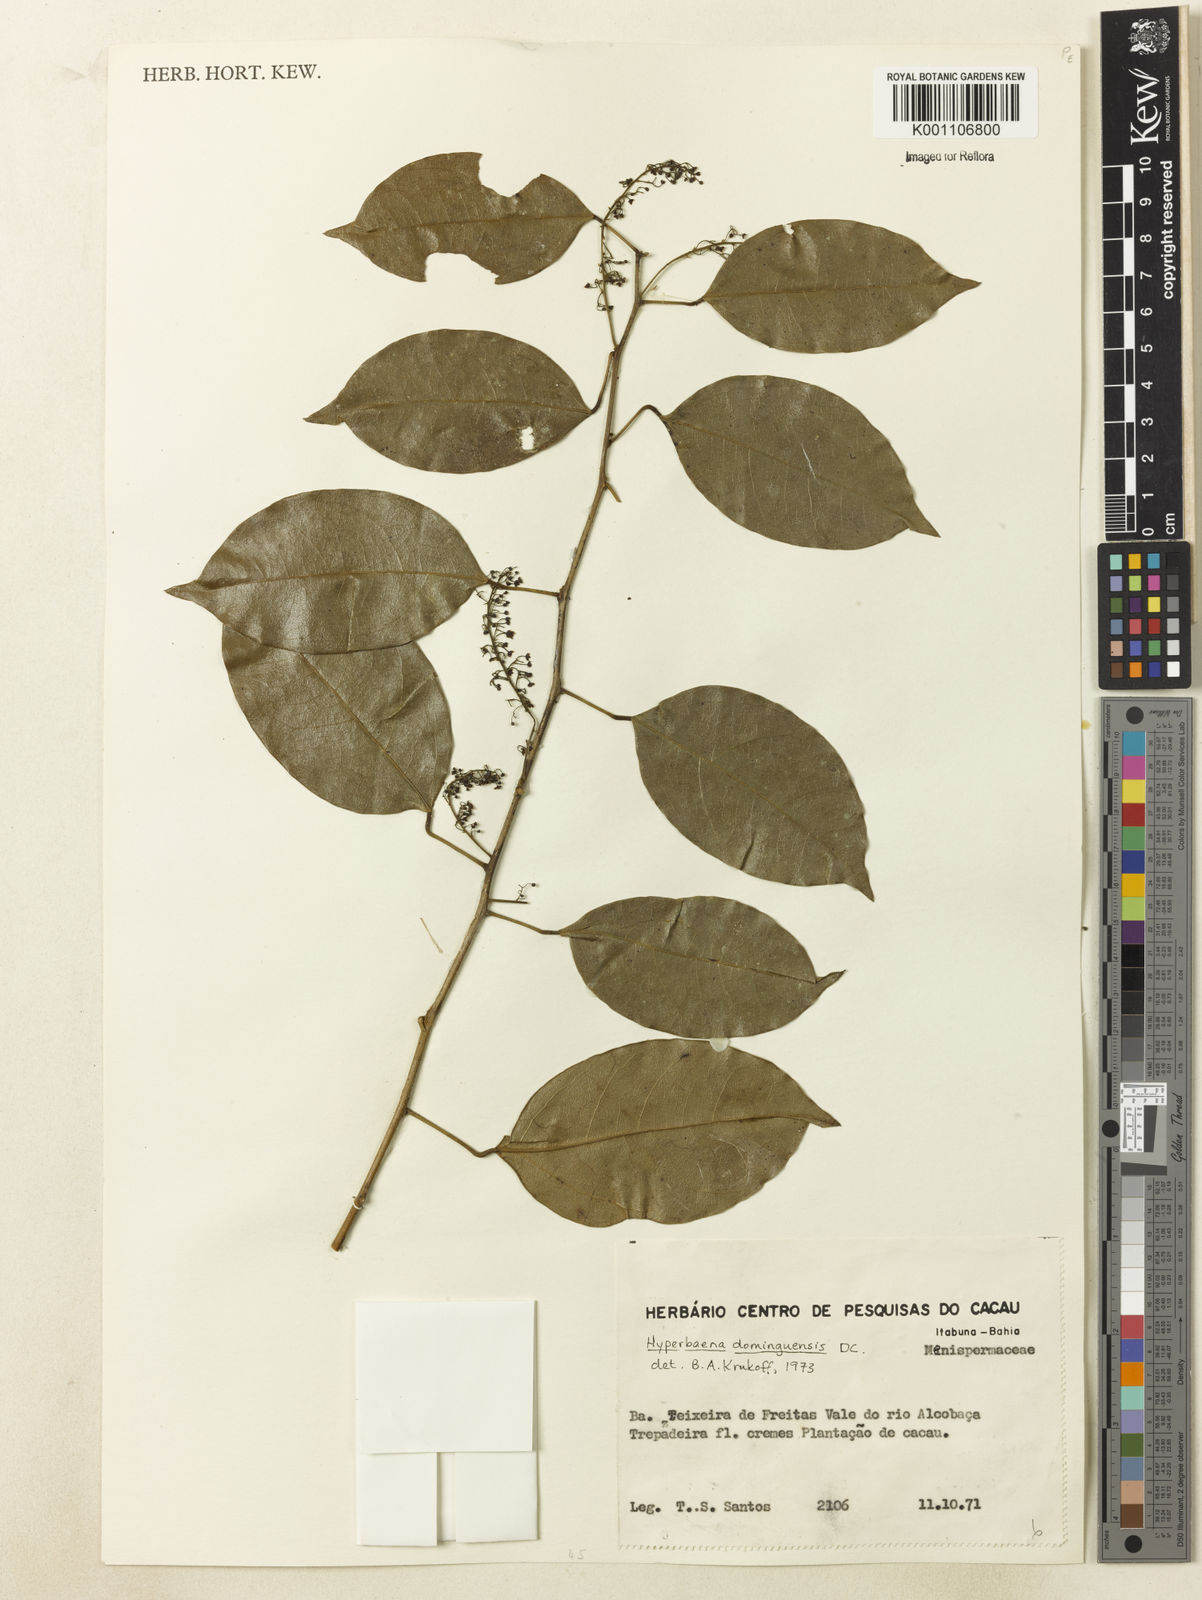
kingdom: Plantae
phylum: Tracheophyta
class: Magnoliopsida
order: Ranunculales
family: Menispermaceae
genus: Hyperbaena
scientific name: Hyperbaena domingensis
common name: Forest snakevine
